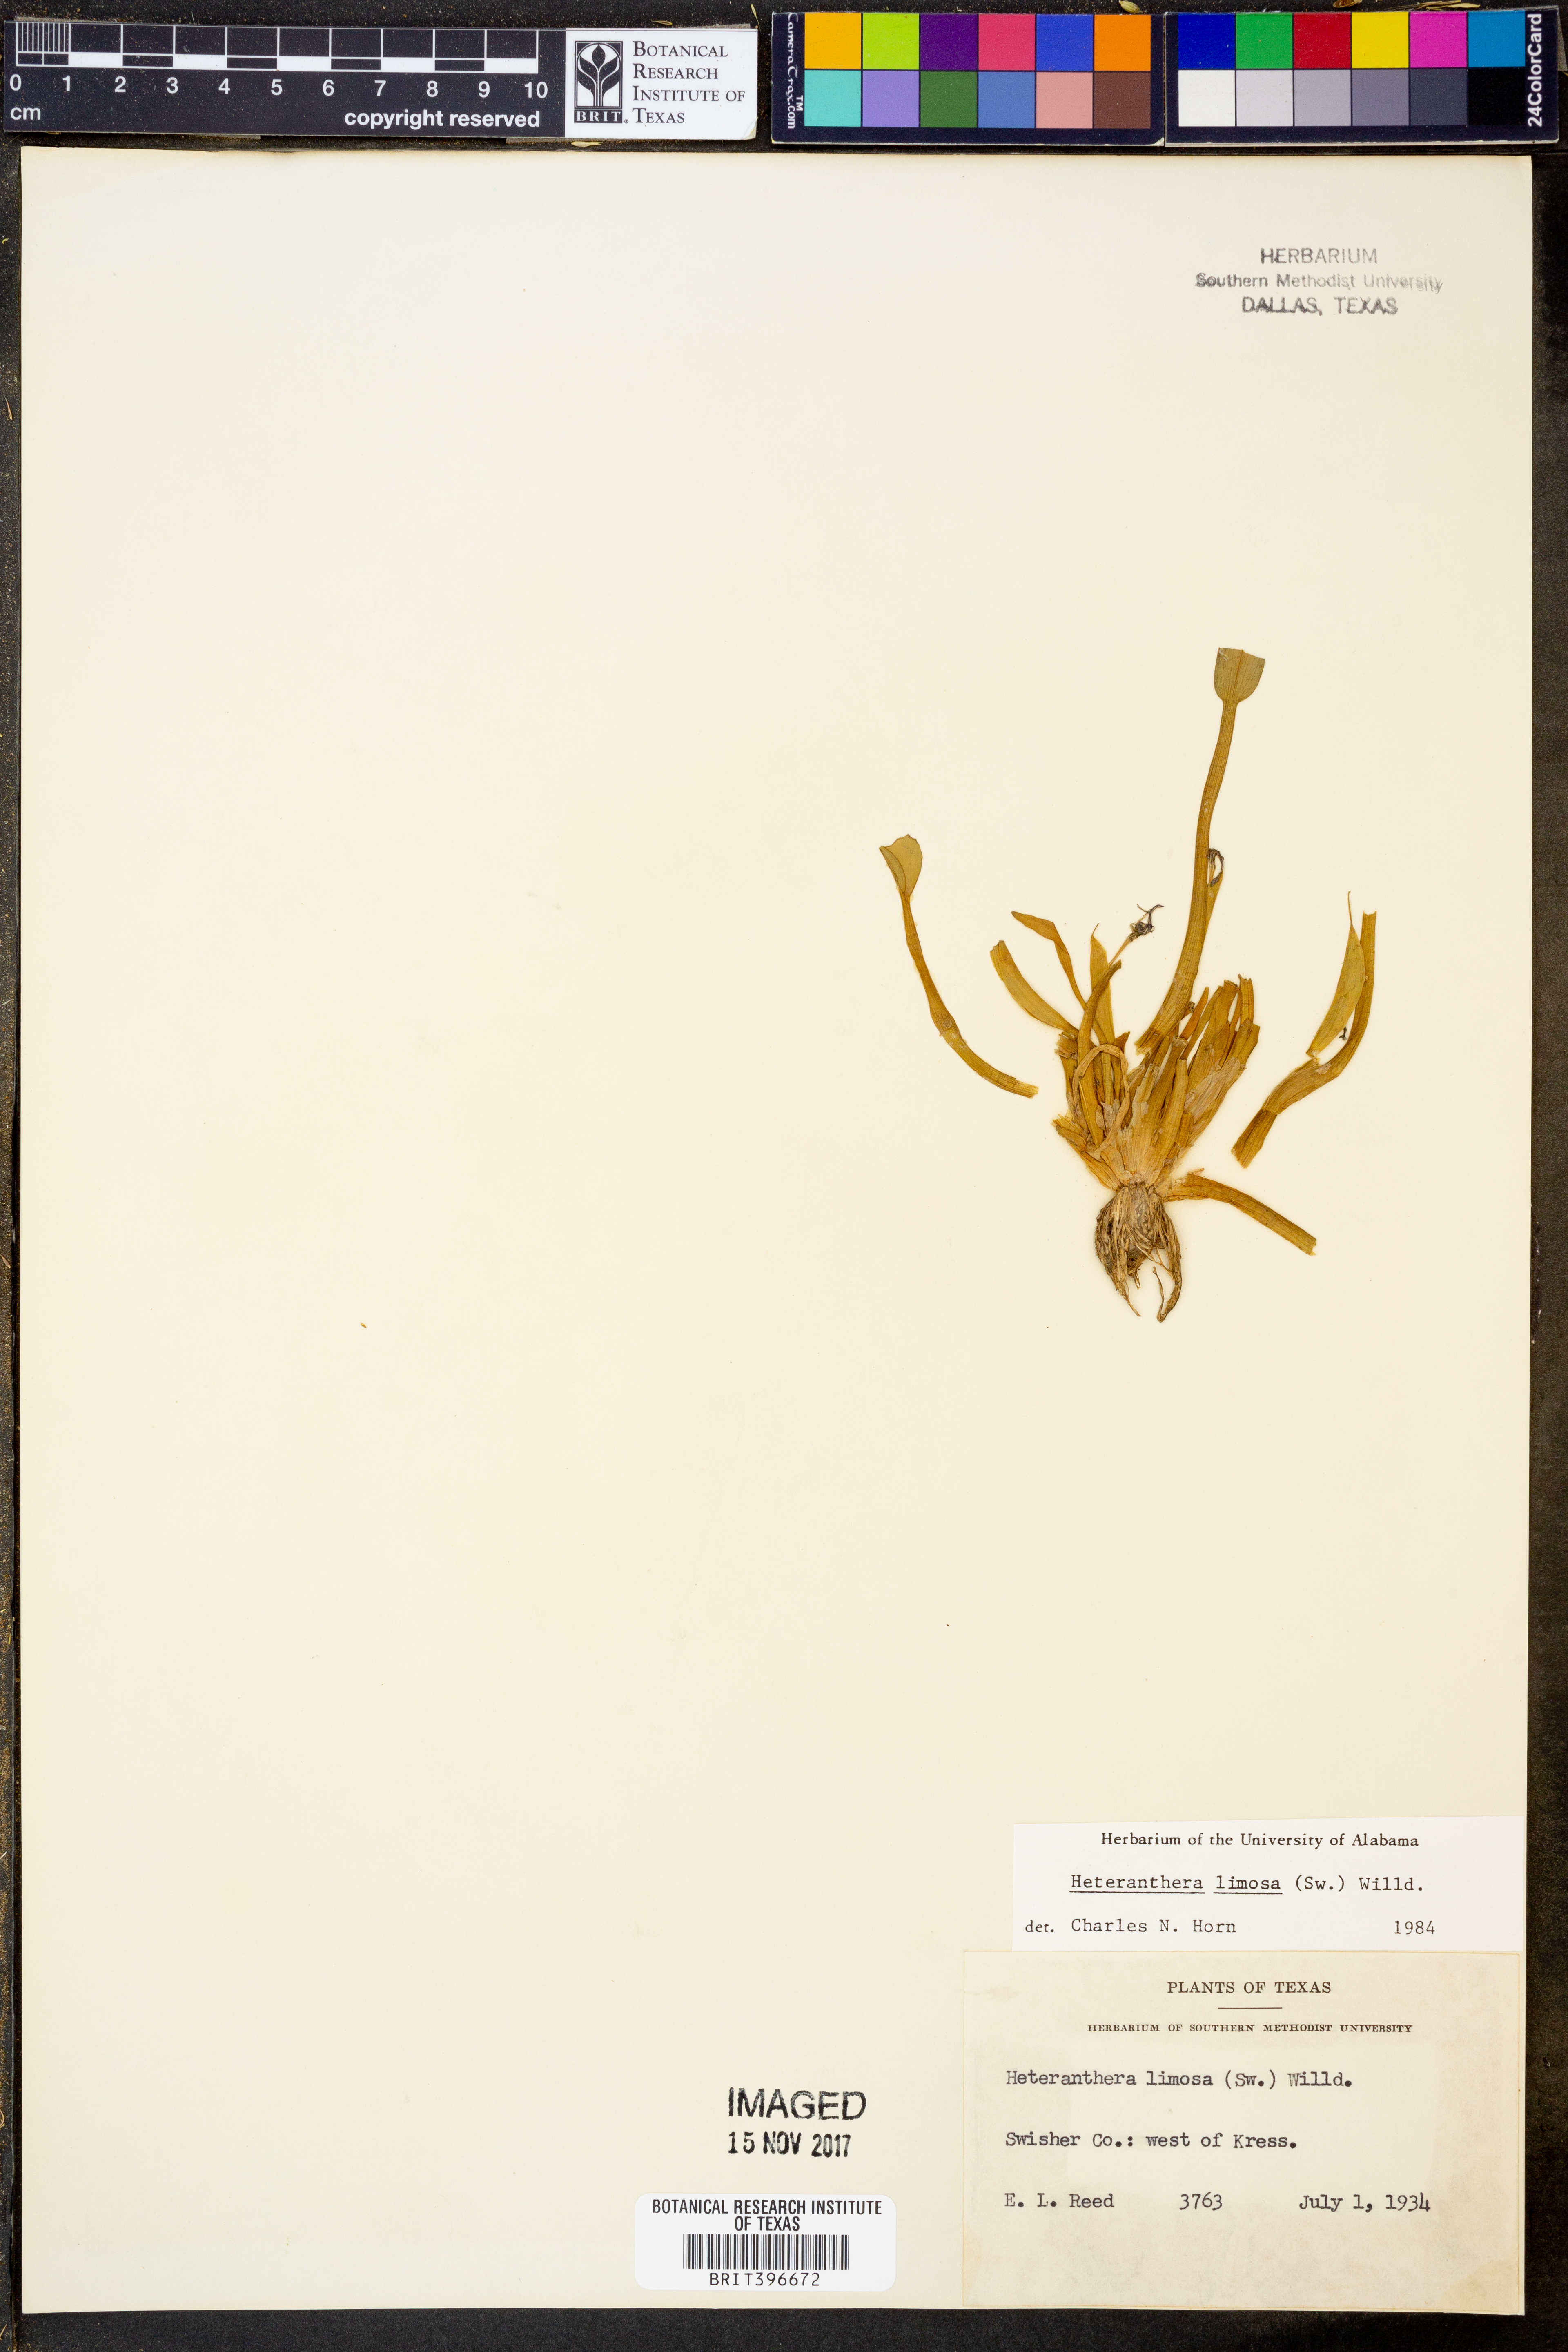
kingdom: Plantae
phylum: Tracheophyta
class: Liliopsida
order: Commelinales
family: Pontederiaceae
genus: Heteranthera
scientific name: Heteranthera limosa
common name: Blue mud-plantain
